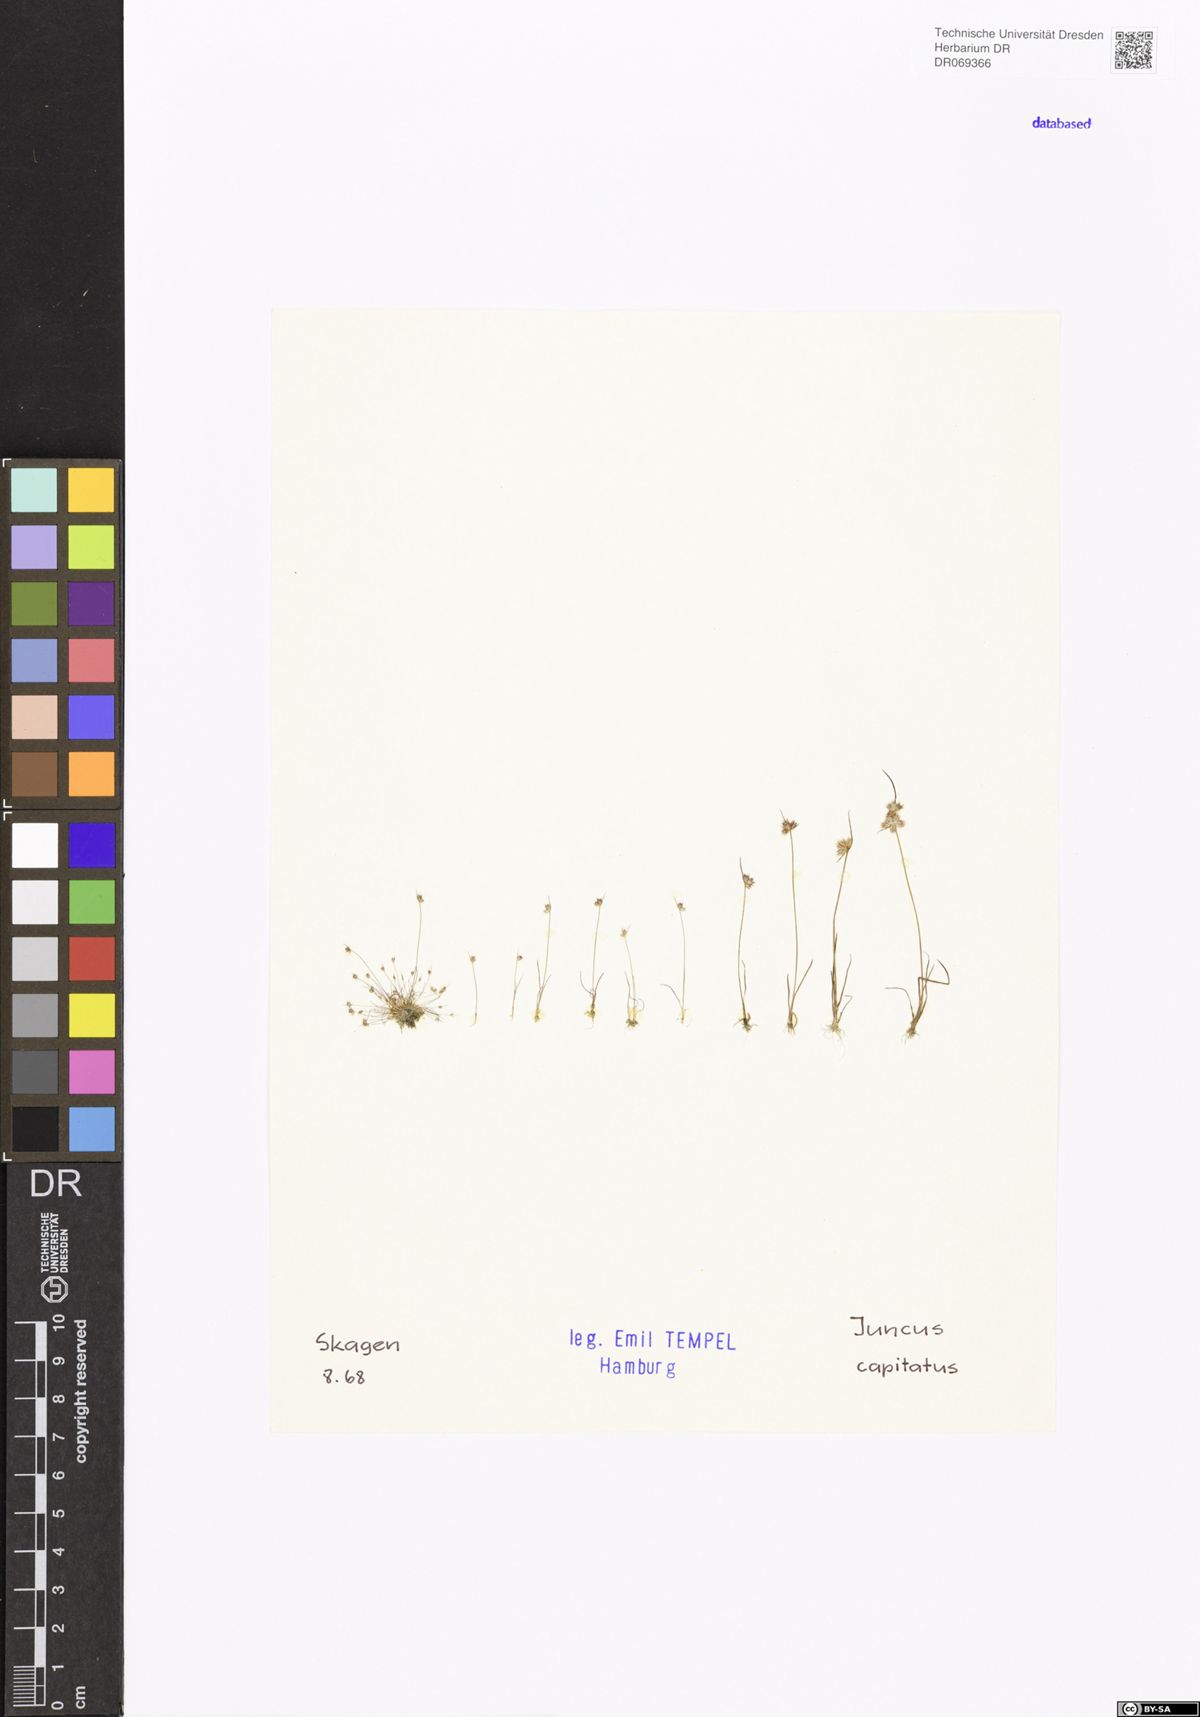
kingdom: Plantae
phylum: Tracheophyta
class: Liliopsida
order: Poales
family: Juncaceae
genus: Juncus
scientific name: Juncus capitatus
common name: Dwarf rush
